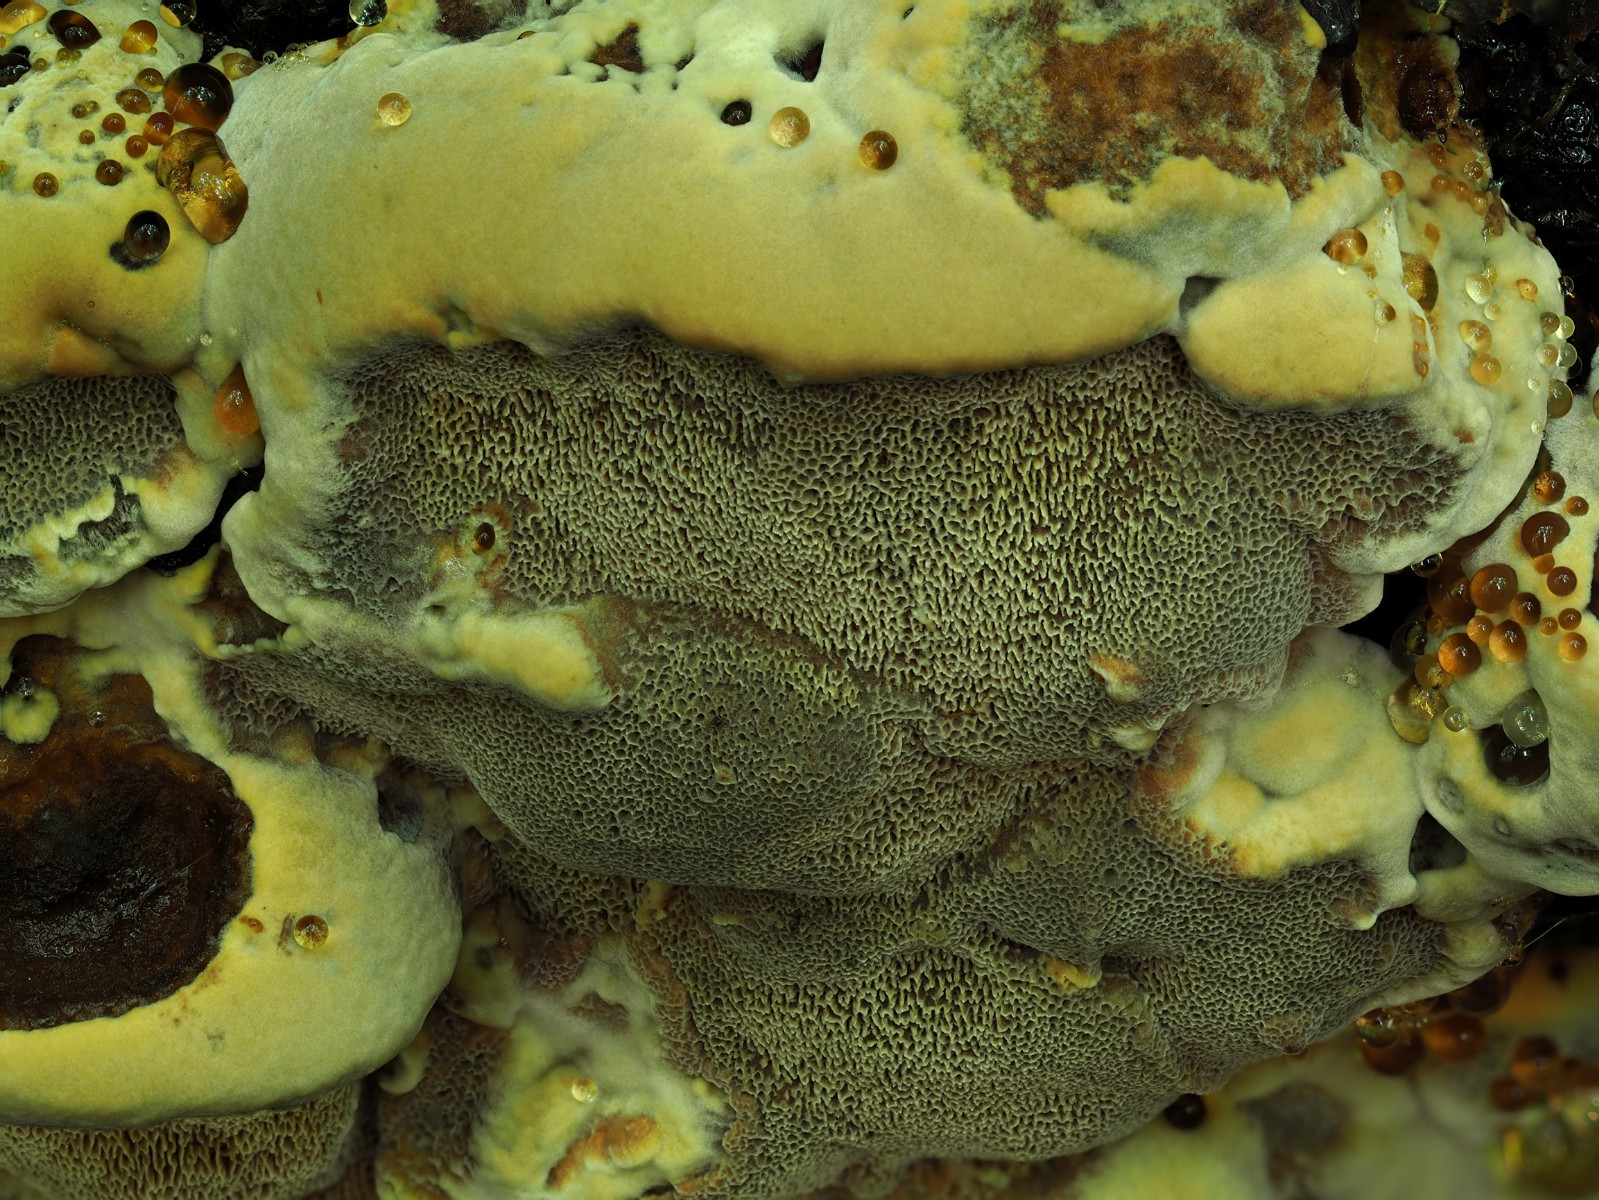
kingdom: Fungi
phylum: Basidiomycota
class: Agaricomycetes
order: Hymenochaetales
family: Hymenochaetaceae
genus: Xanthoporia
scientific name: Xanthoporia radiata
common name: elle-spejlporesvamp
